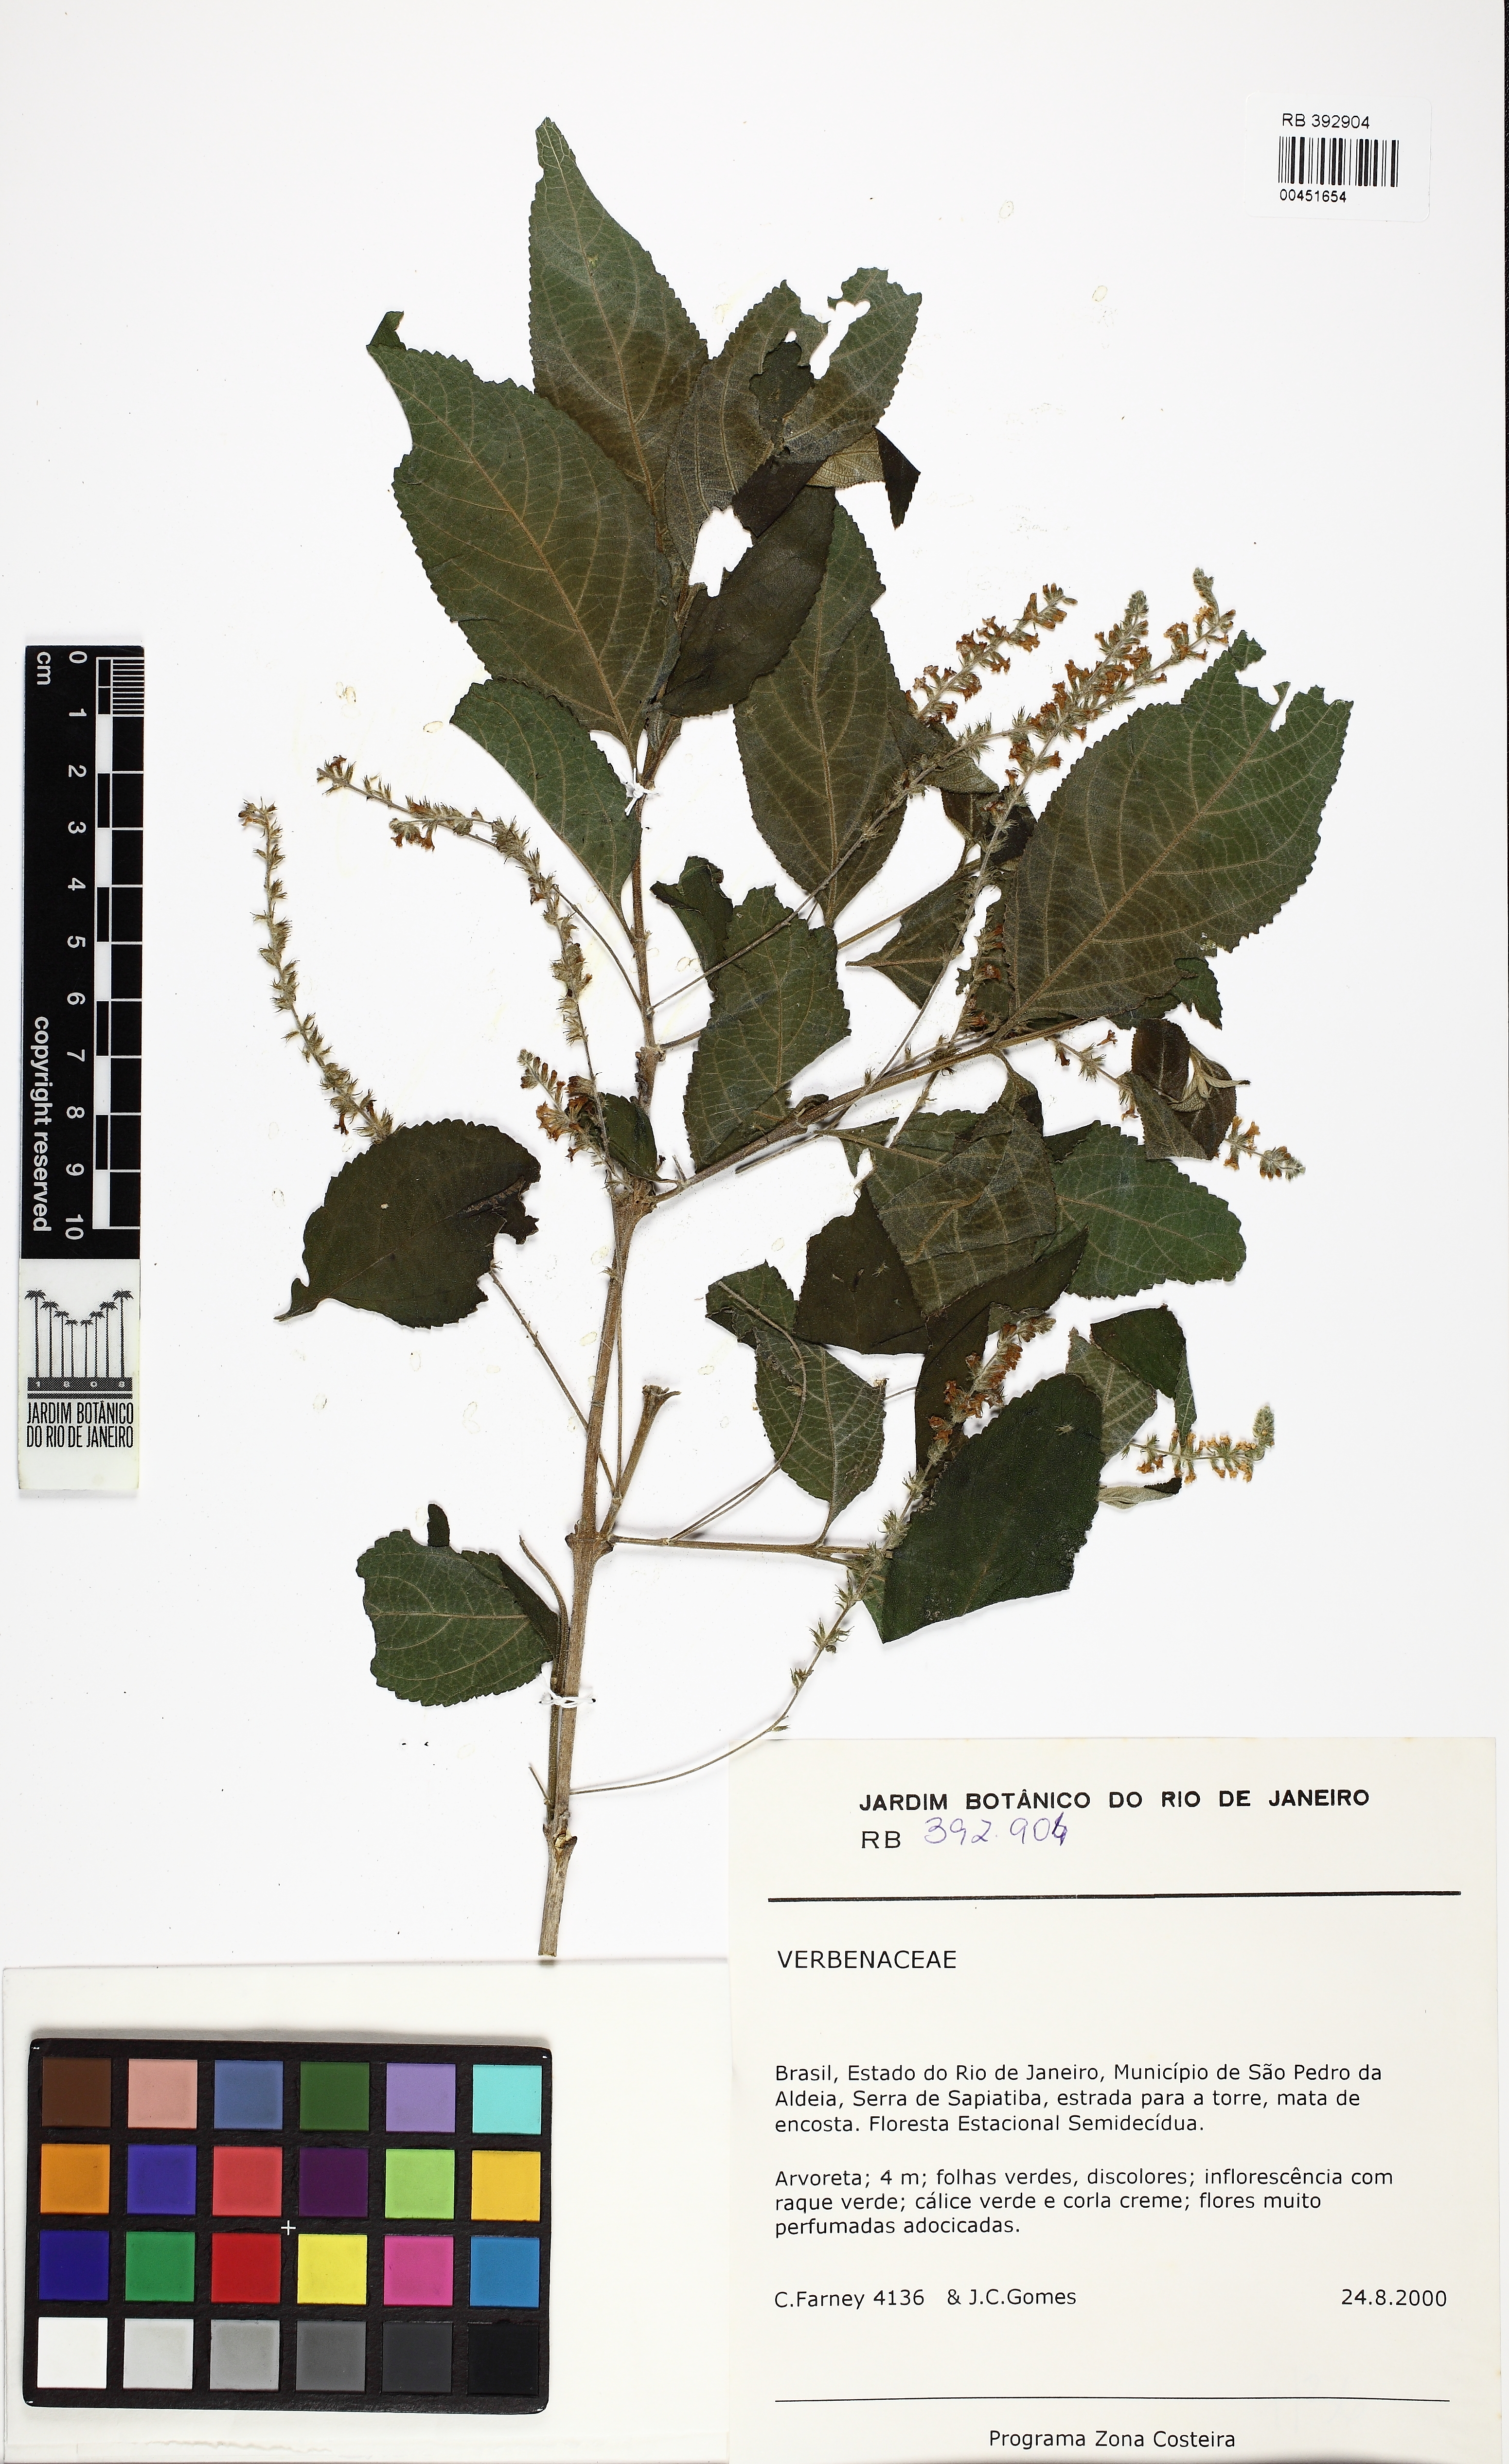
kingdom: Plantae
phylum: Tracheophyta
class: Magnoliopsida
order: Lamiales
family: Verbenaceae
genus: Aloysia
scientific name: Aloysia virgata
